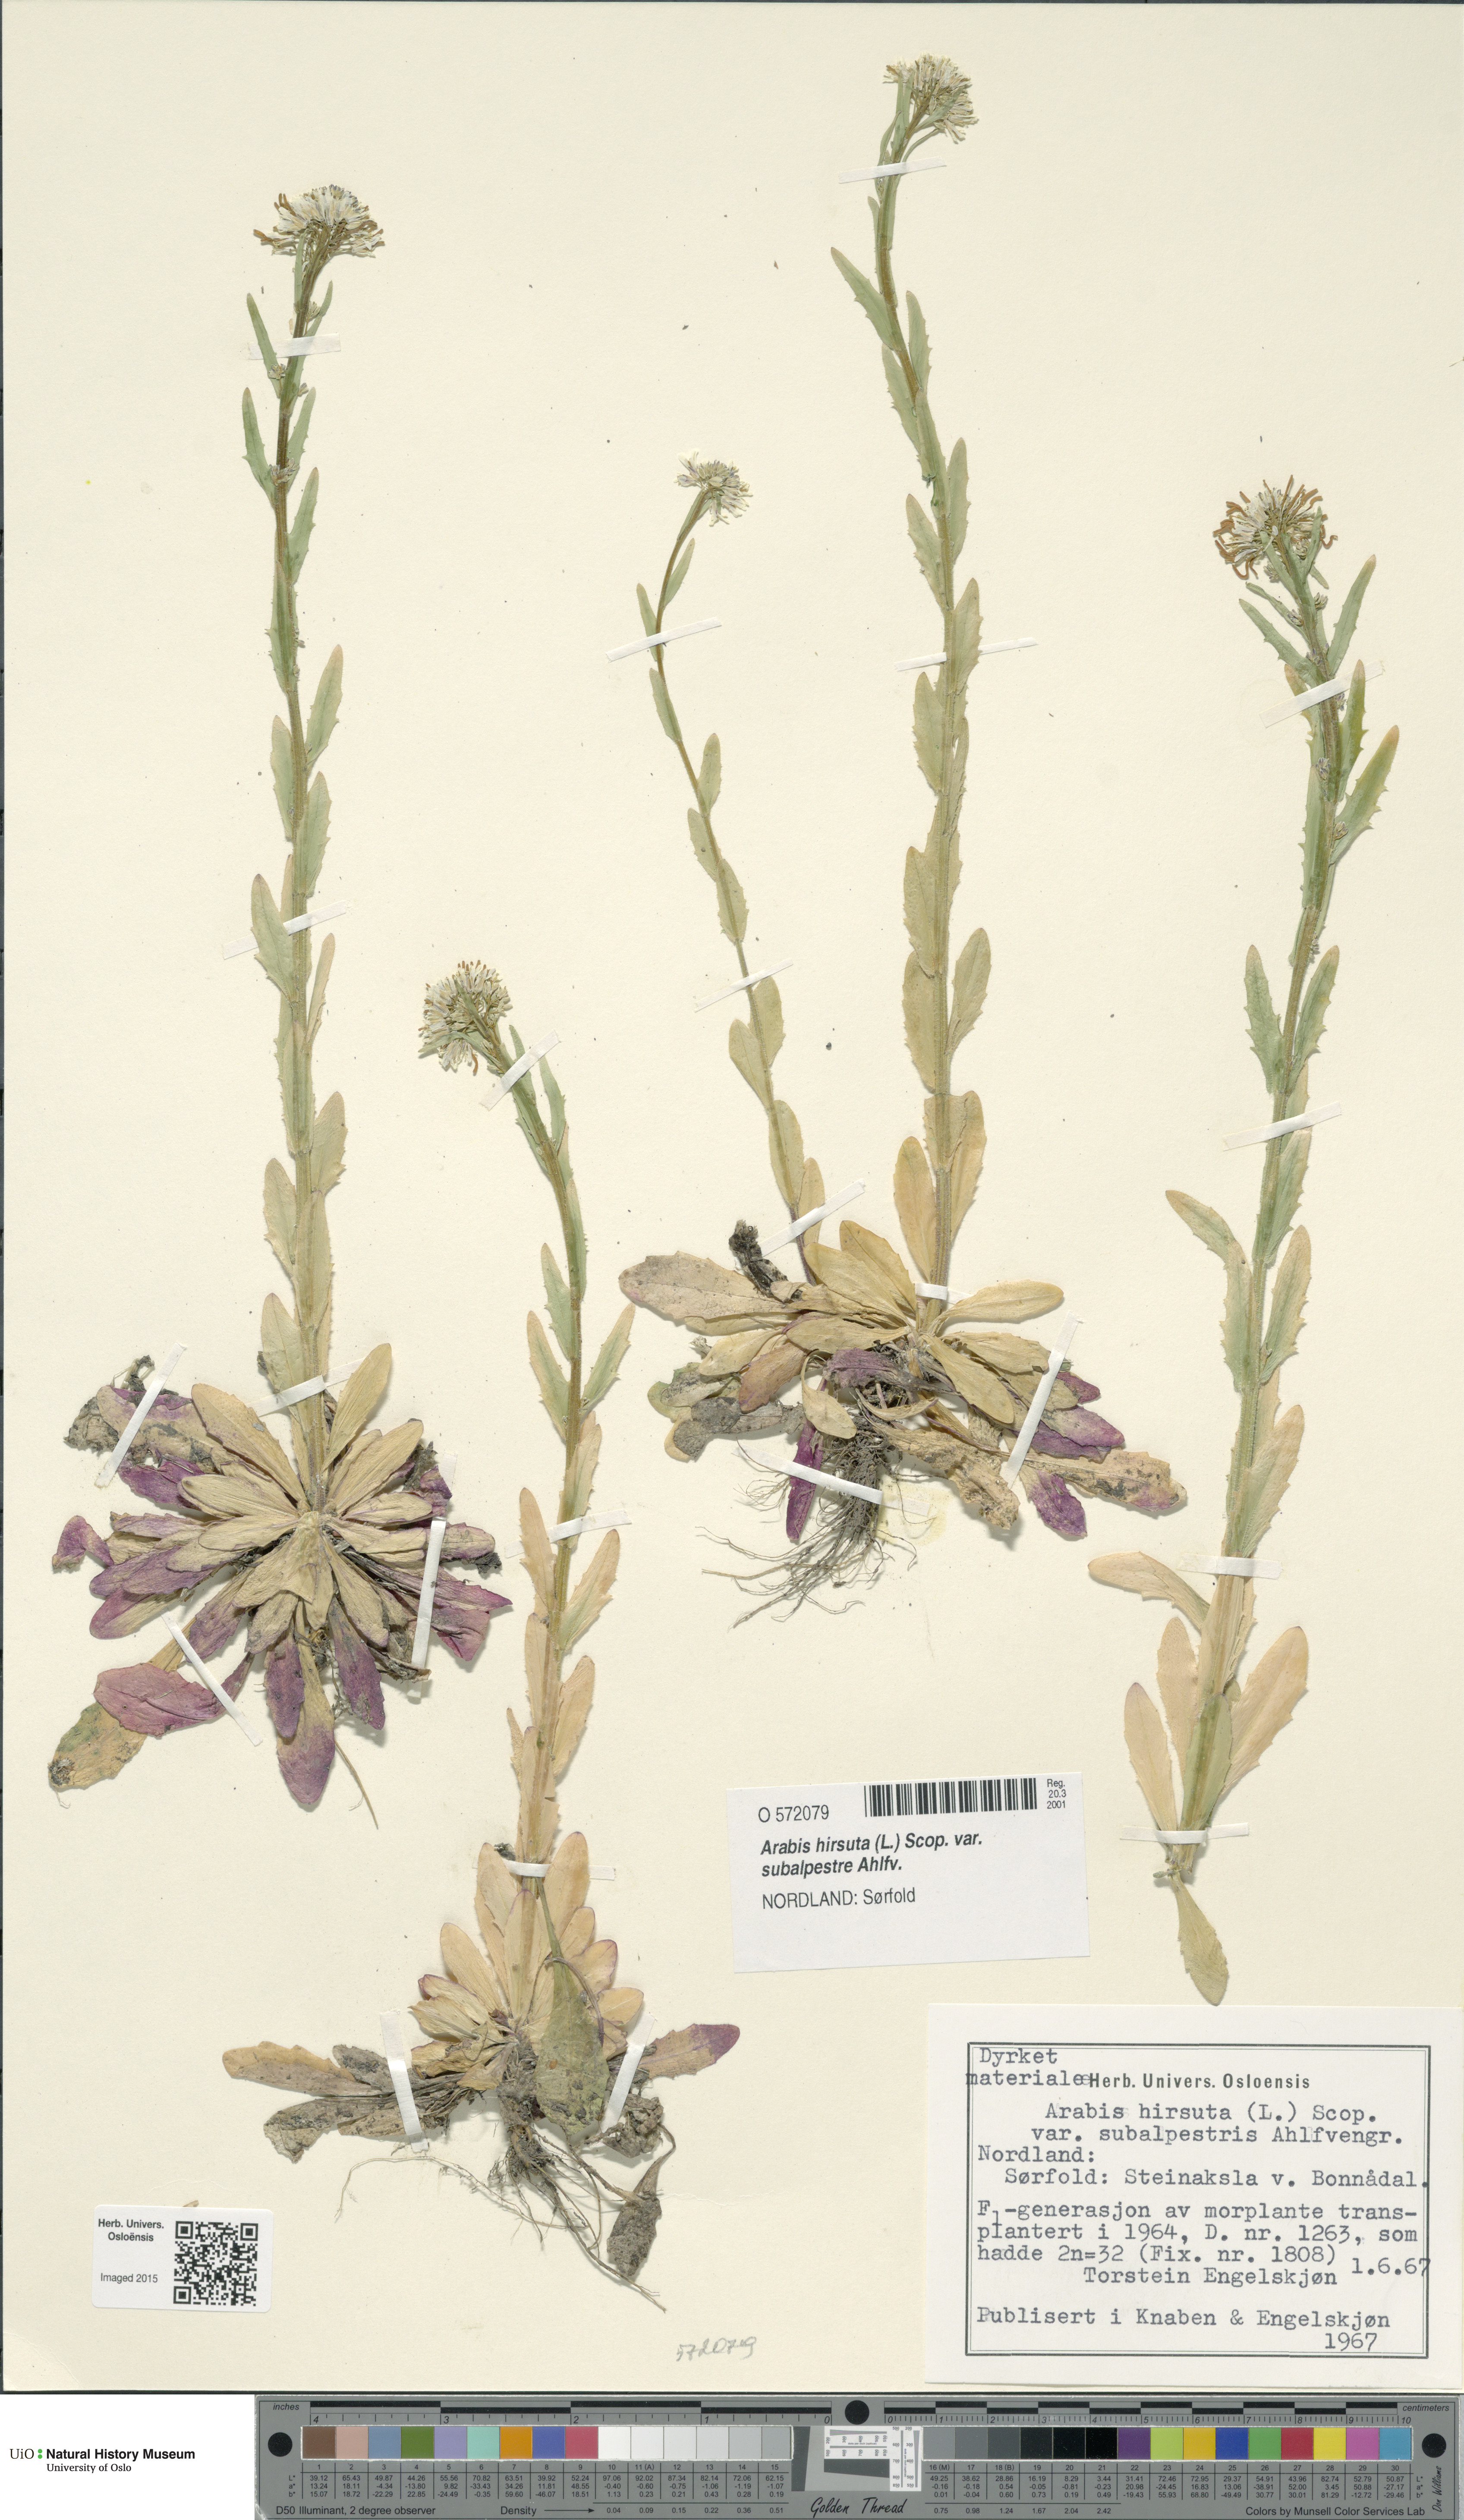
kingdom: Plantae
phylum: Tracheophyta
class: Magnoliopsida
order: Brassicales
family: Brassicaceae
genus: Arabis
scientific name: Arabis hirsuta
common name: Hairy rock-cress
